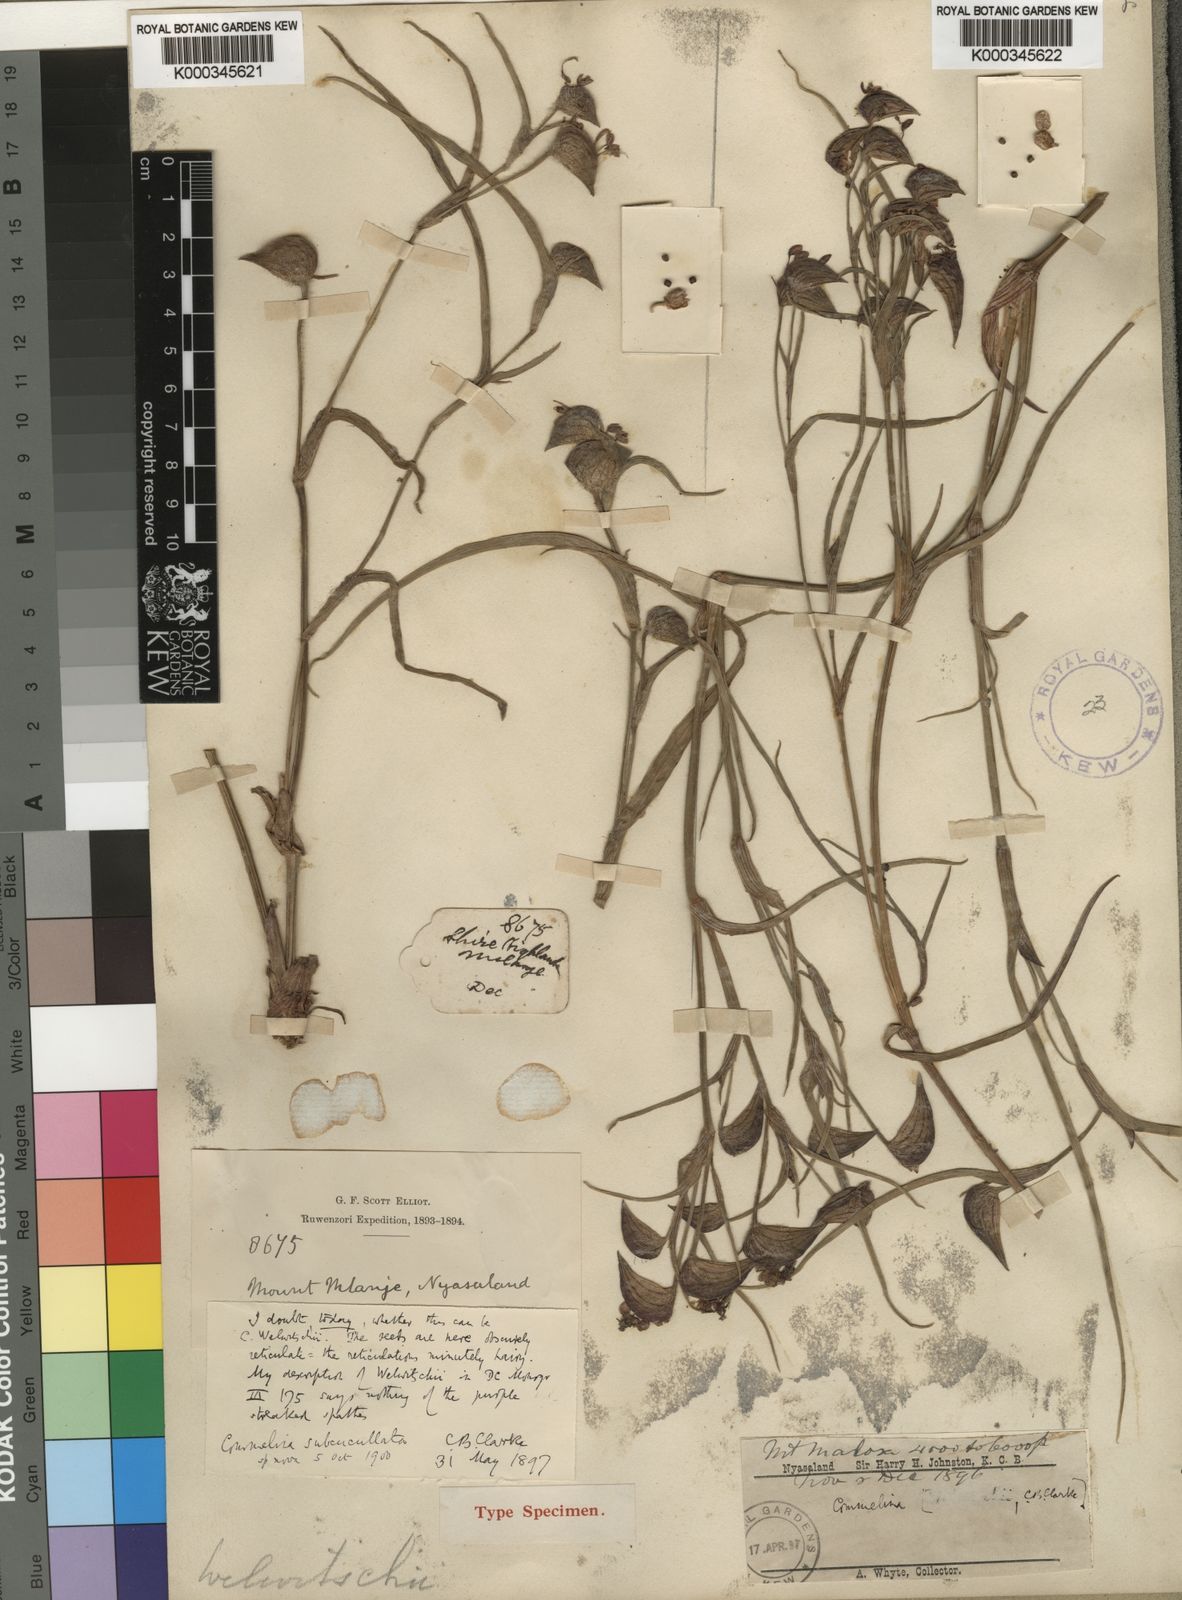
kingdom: Plantae
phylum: Tracheophyta
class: Liliopsida
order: Commelinales
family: Commelinaceae
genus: Commelina
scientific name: Commelina subcucullata
